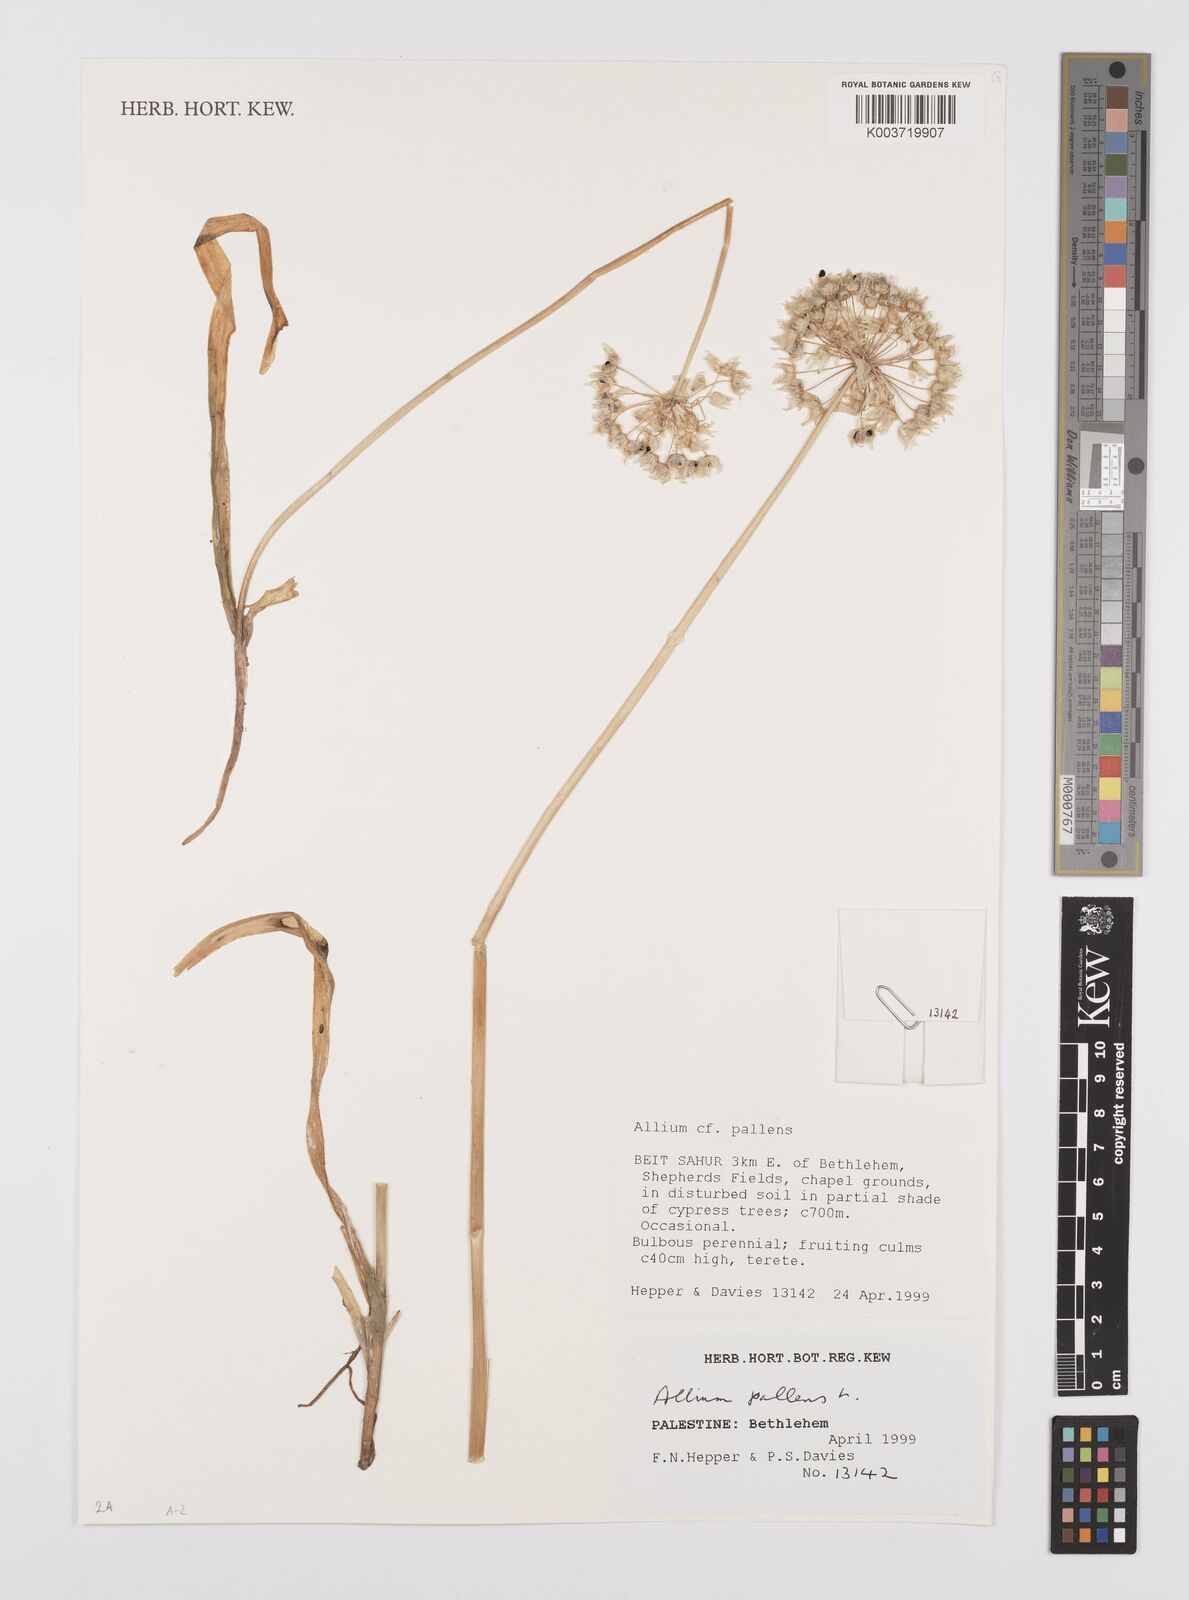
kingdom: Plantae
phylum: Tracheophyta
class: Liliopsida
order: Asparagales
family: Amaryllidaceae
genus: Allium
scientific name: Allium pallens
